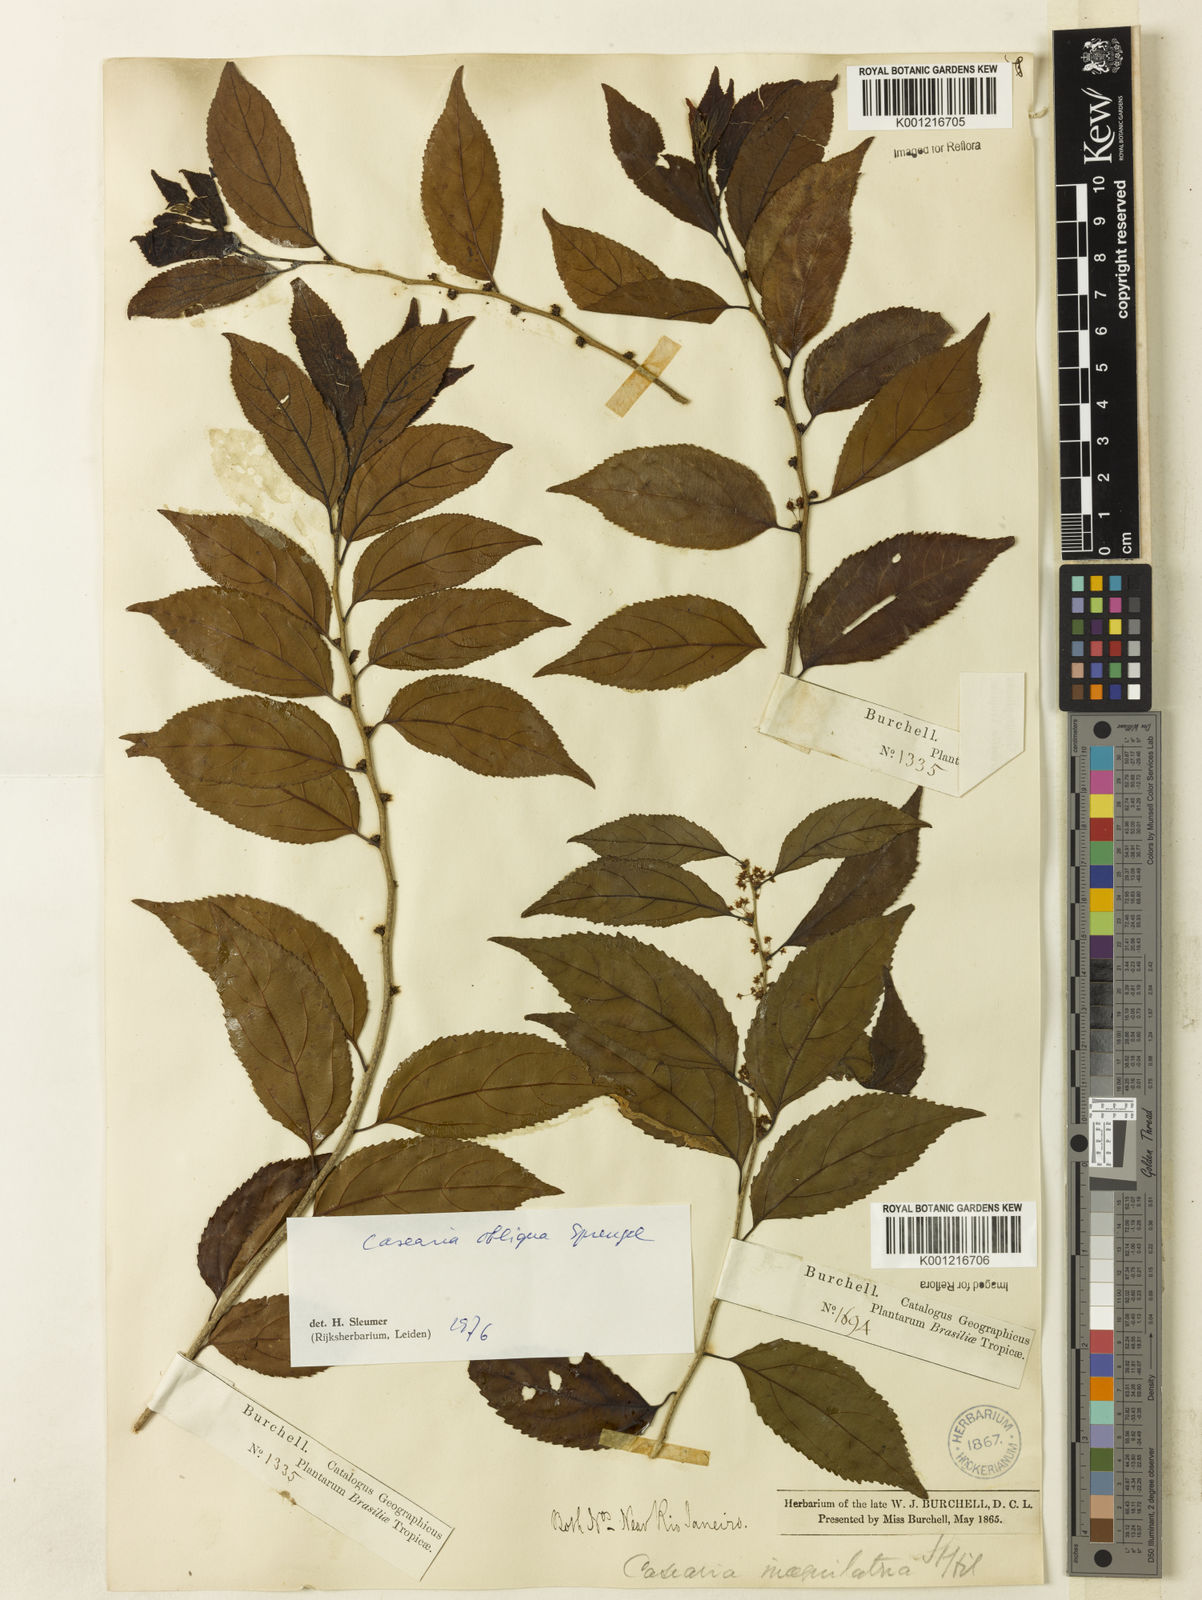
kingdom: Plantae
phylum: Tracheophyta
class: Magnoliopsida
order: Malpighiales
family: Salicaceae
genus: Casearia
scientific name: Casearia obliqua
